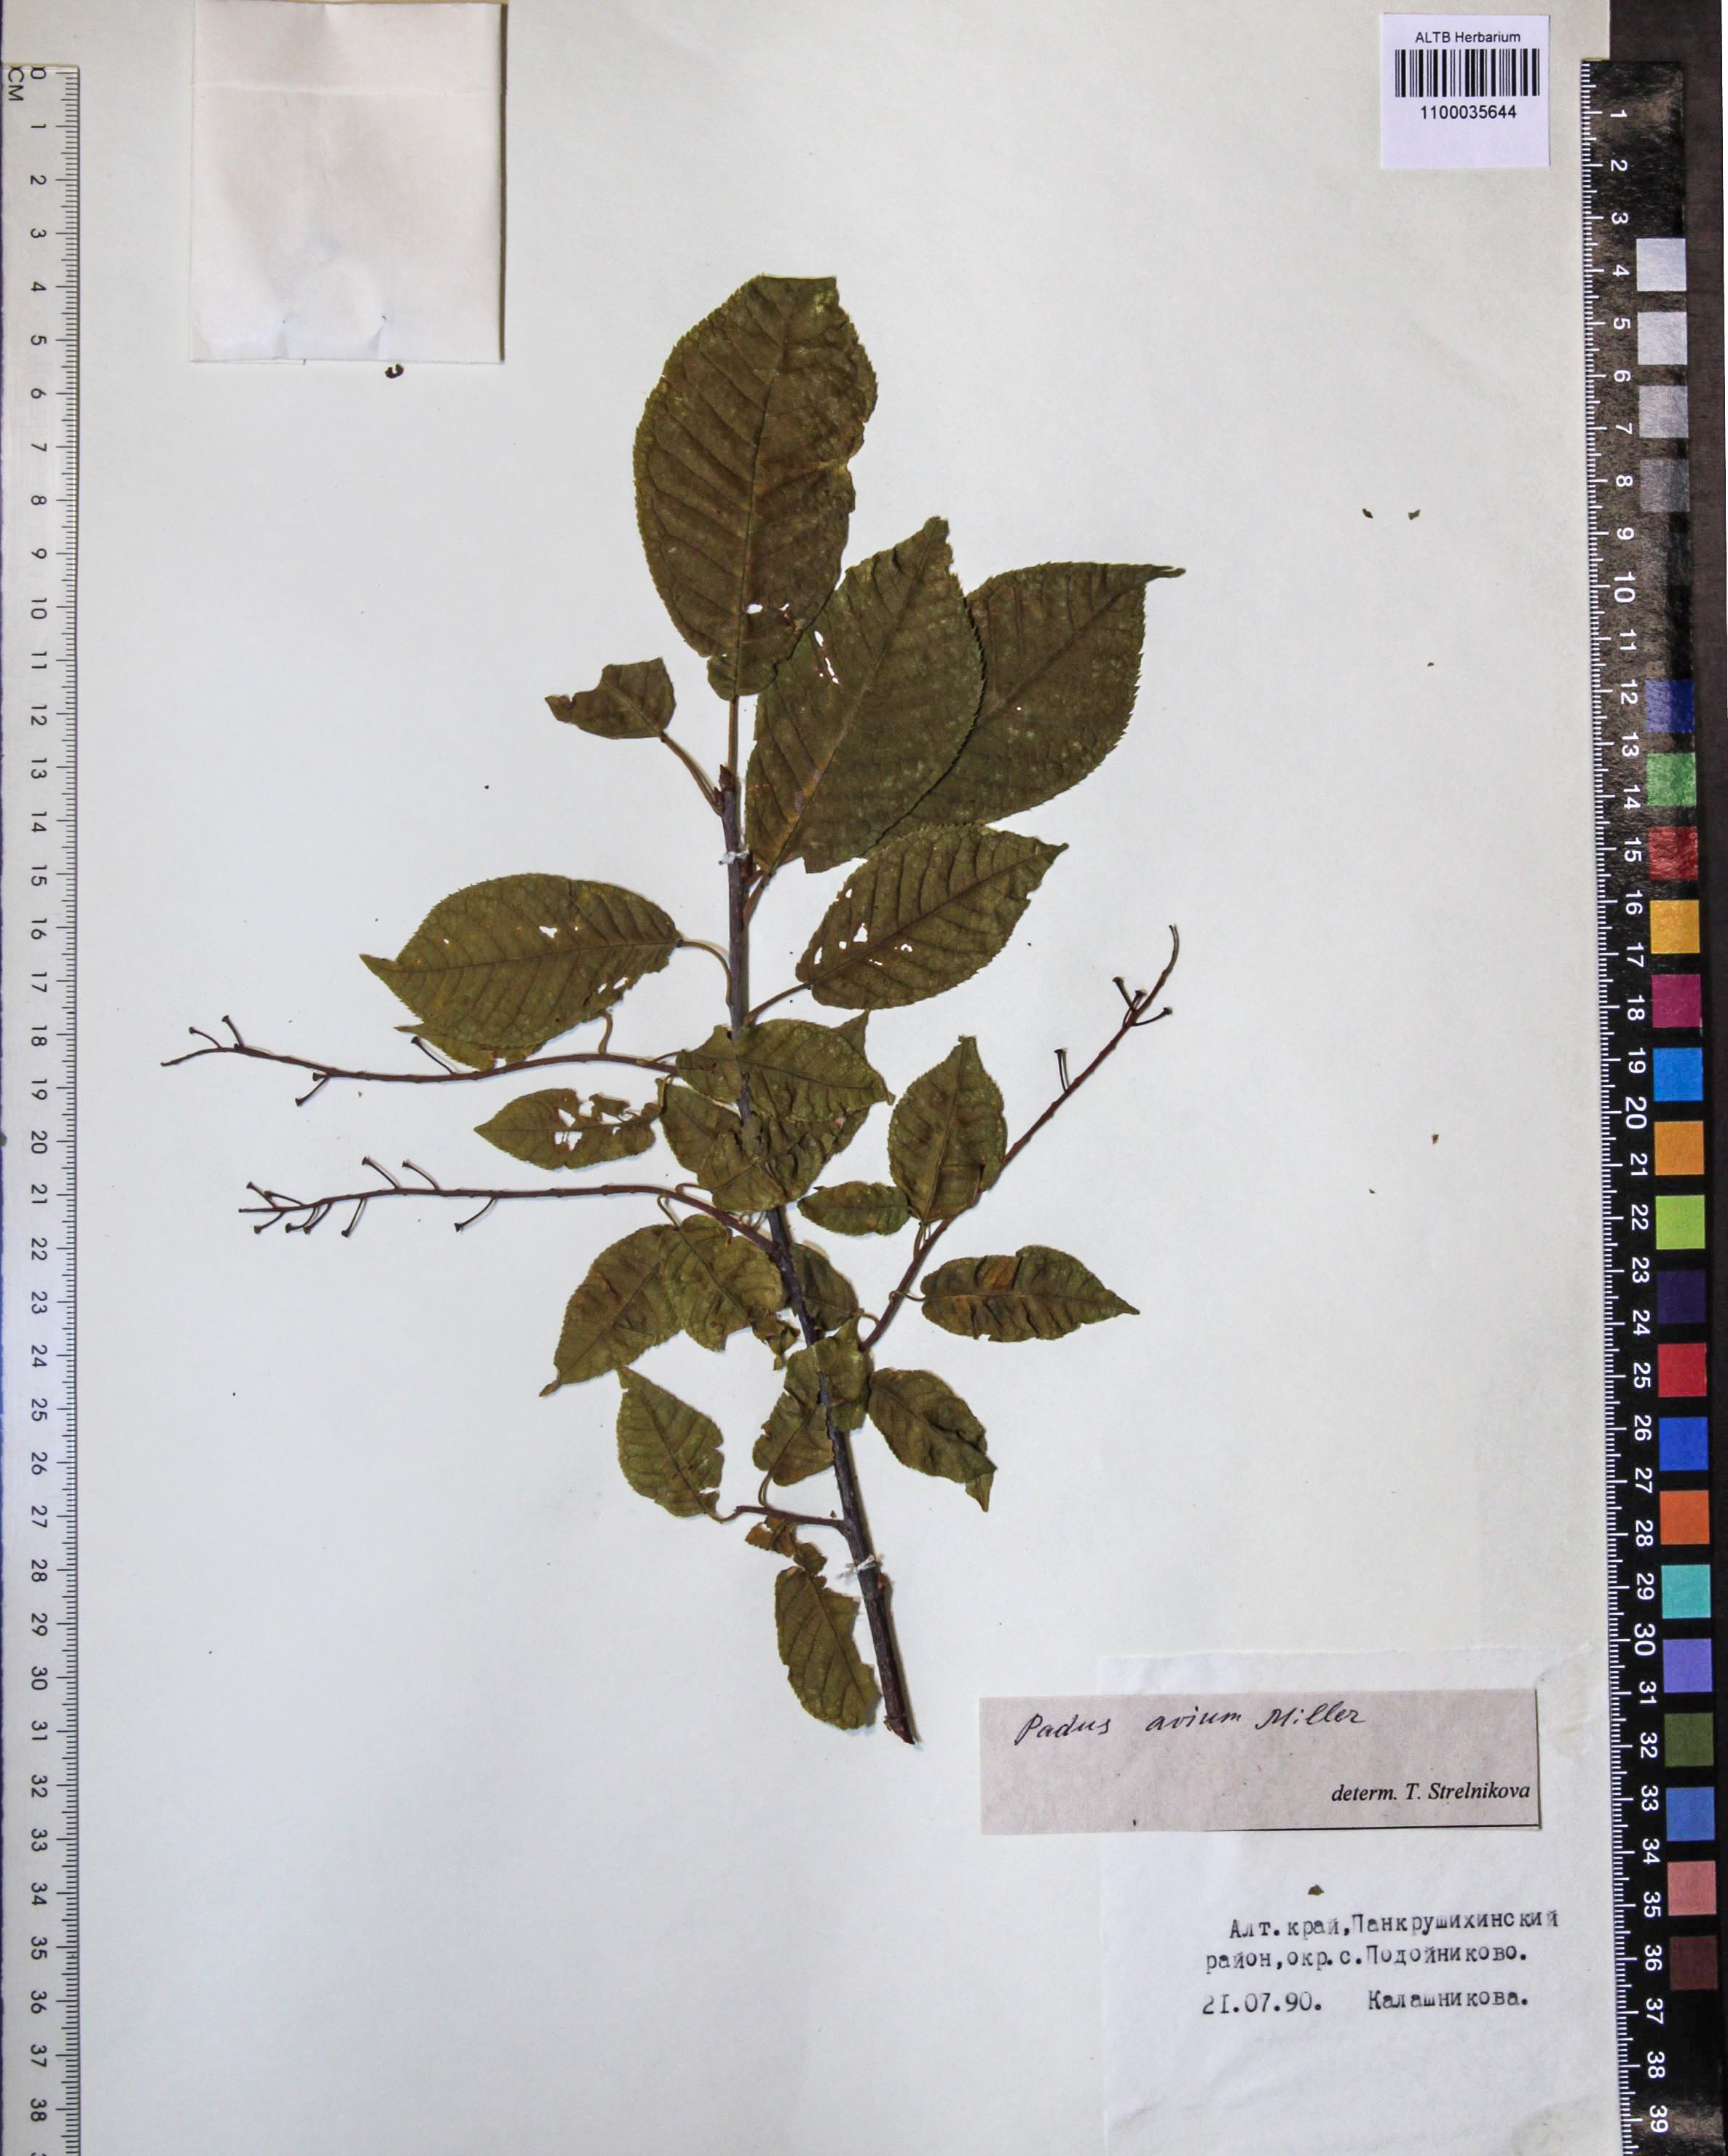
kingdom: Plantae
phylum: Tracheophyta
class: Magnoliopsida
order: Rosales
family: Rosaceae
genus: Prunus
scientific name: Prunus padus
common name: Bird cherry
